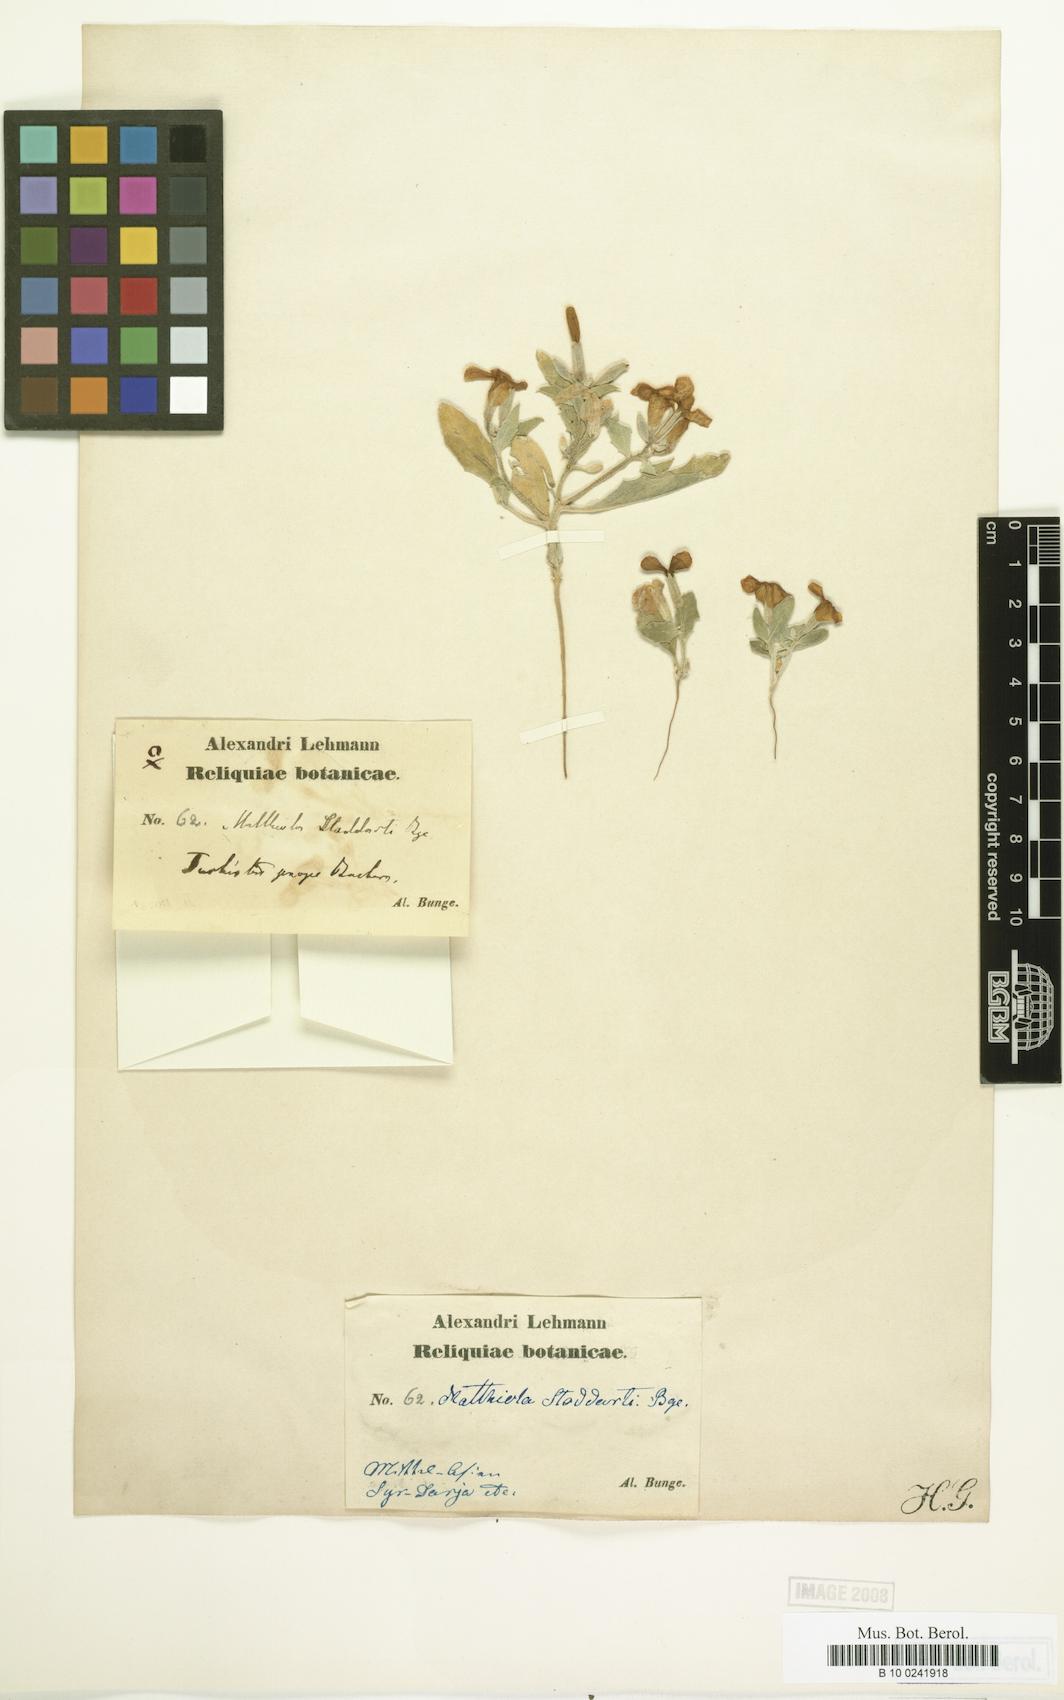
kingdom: Plantae
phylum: Tracheophyta
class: Magnoliopsida
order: Brassicales
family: Brassicaceae
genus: Matthiola
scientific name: Matthiola stoddartii
